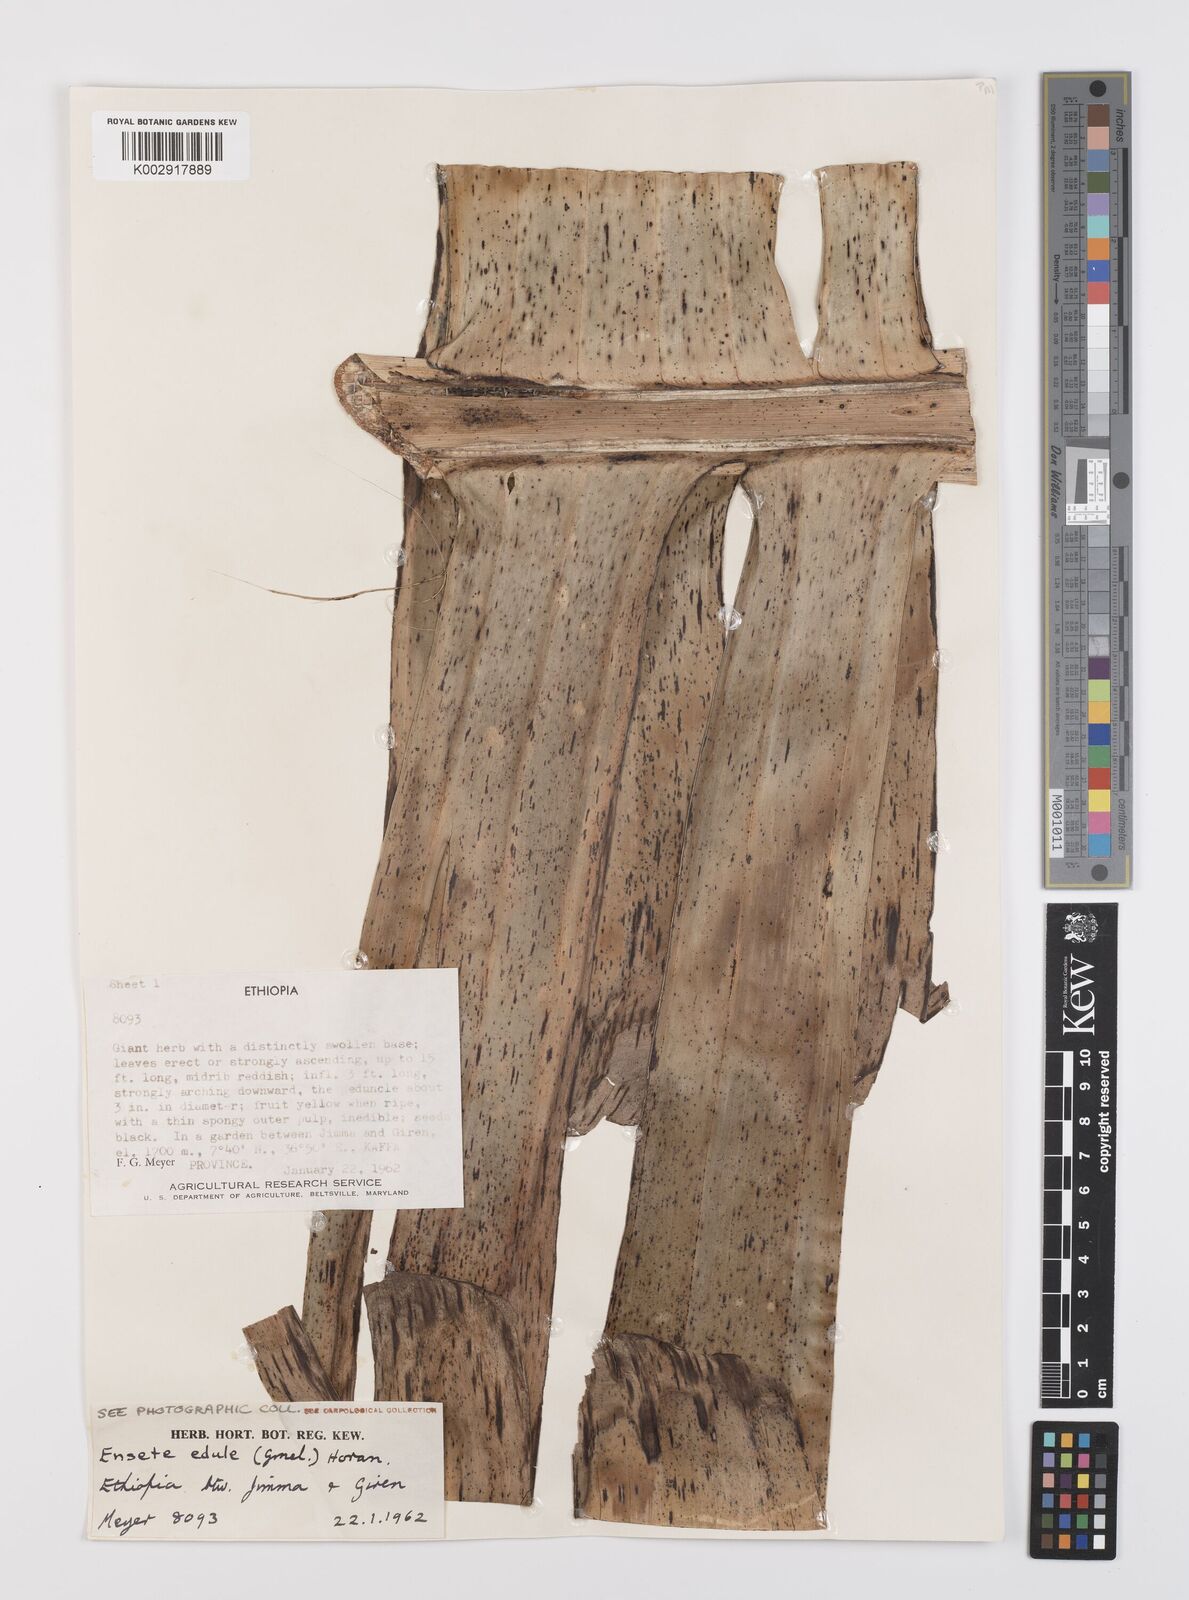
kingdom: Plantae
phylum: Tracheophyta
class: Liliopsida
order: Zingiberales
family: Musaceae
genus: Ensete
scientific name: Ensete ventricosum
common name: Abyssinian banana
